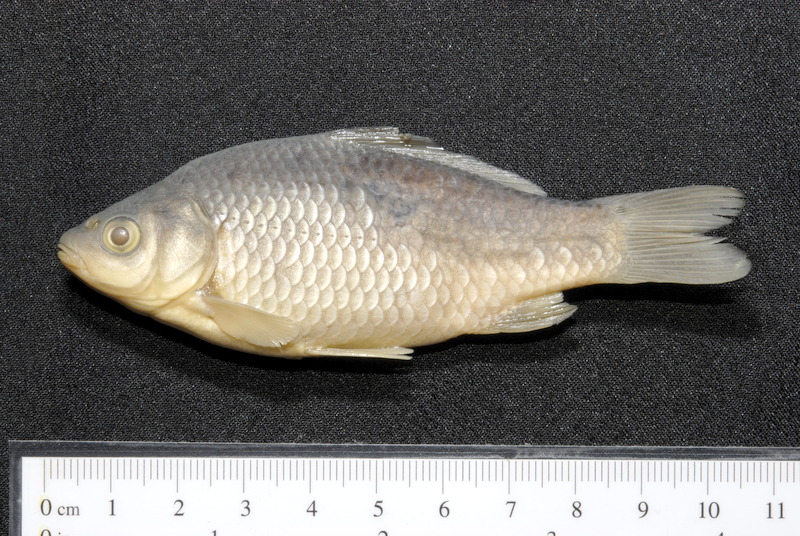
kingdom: Animalia
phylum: Chordata
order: Cypriniformes
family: Cyprinidae
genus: Carassius
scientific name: Carassius gibelio
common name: Prussian carp
